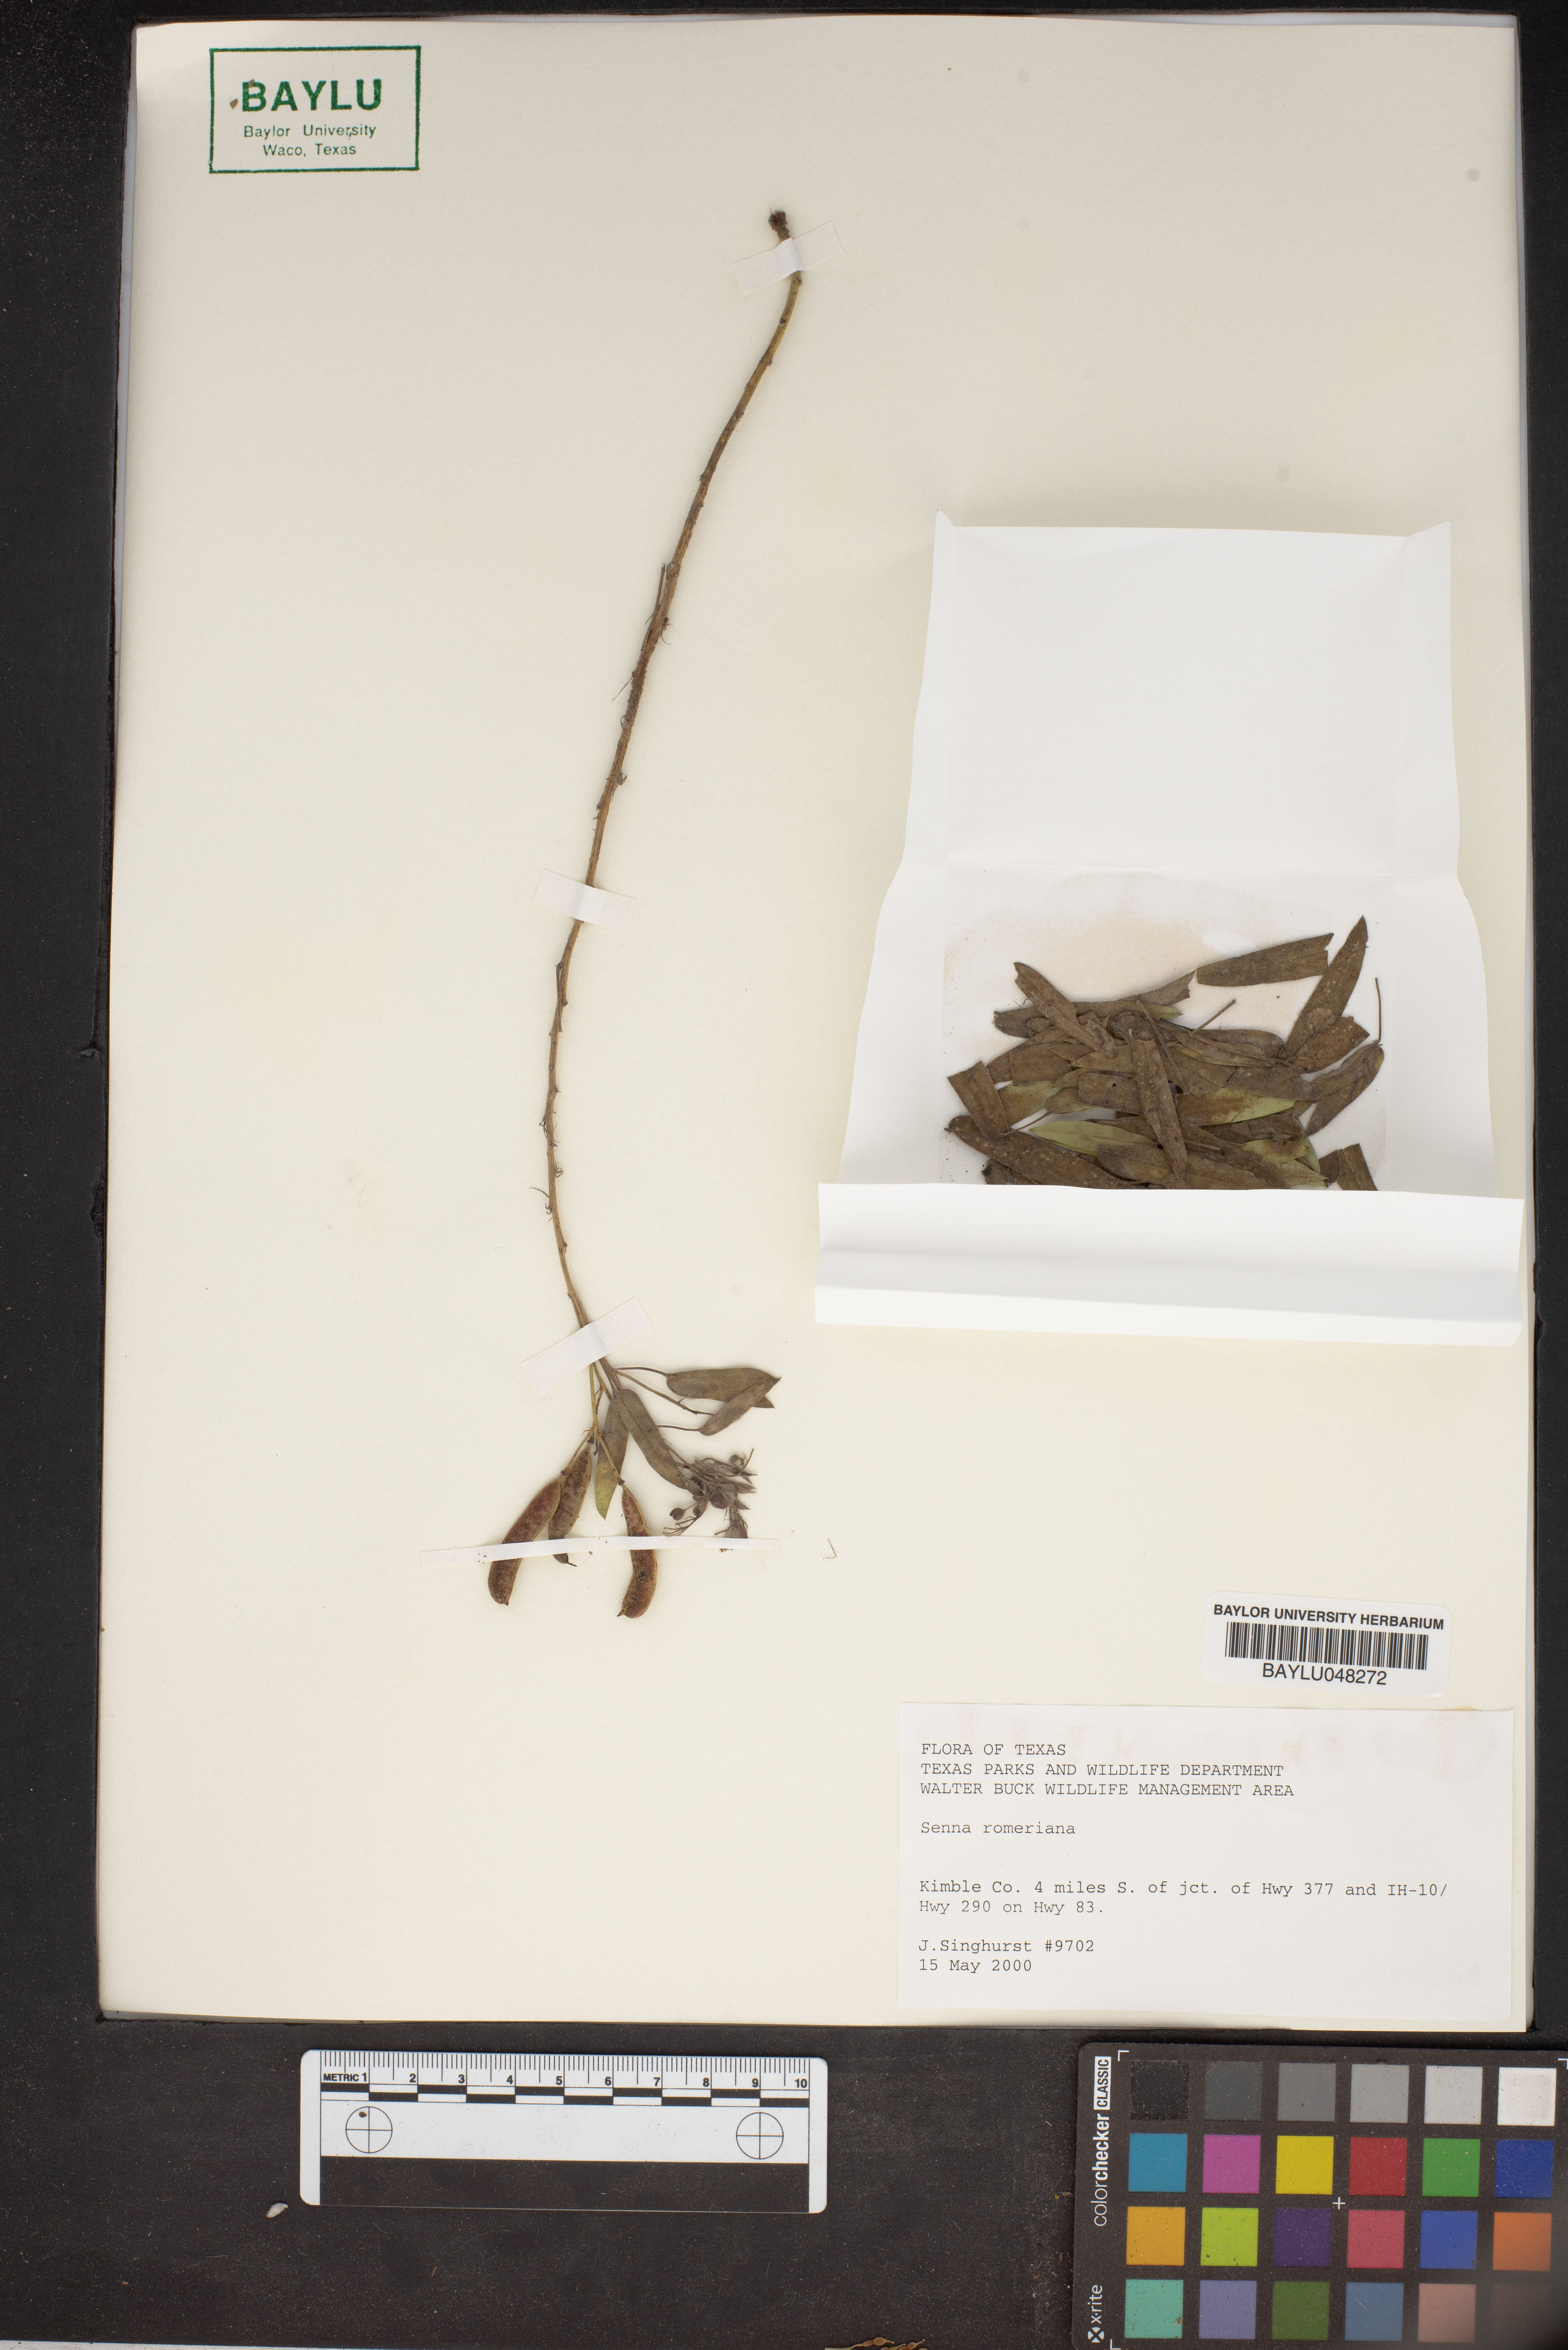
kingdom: Plantae
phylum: Tracheophyta
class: Magnoliopsida
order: Fabales
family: Fabaceae
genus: Senna
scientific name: Senna roemeriana
